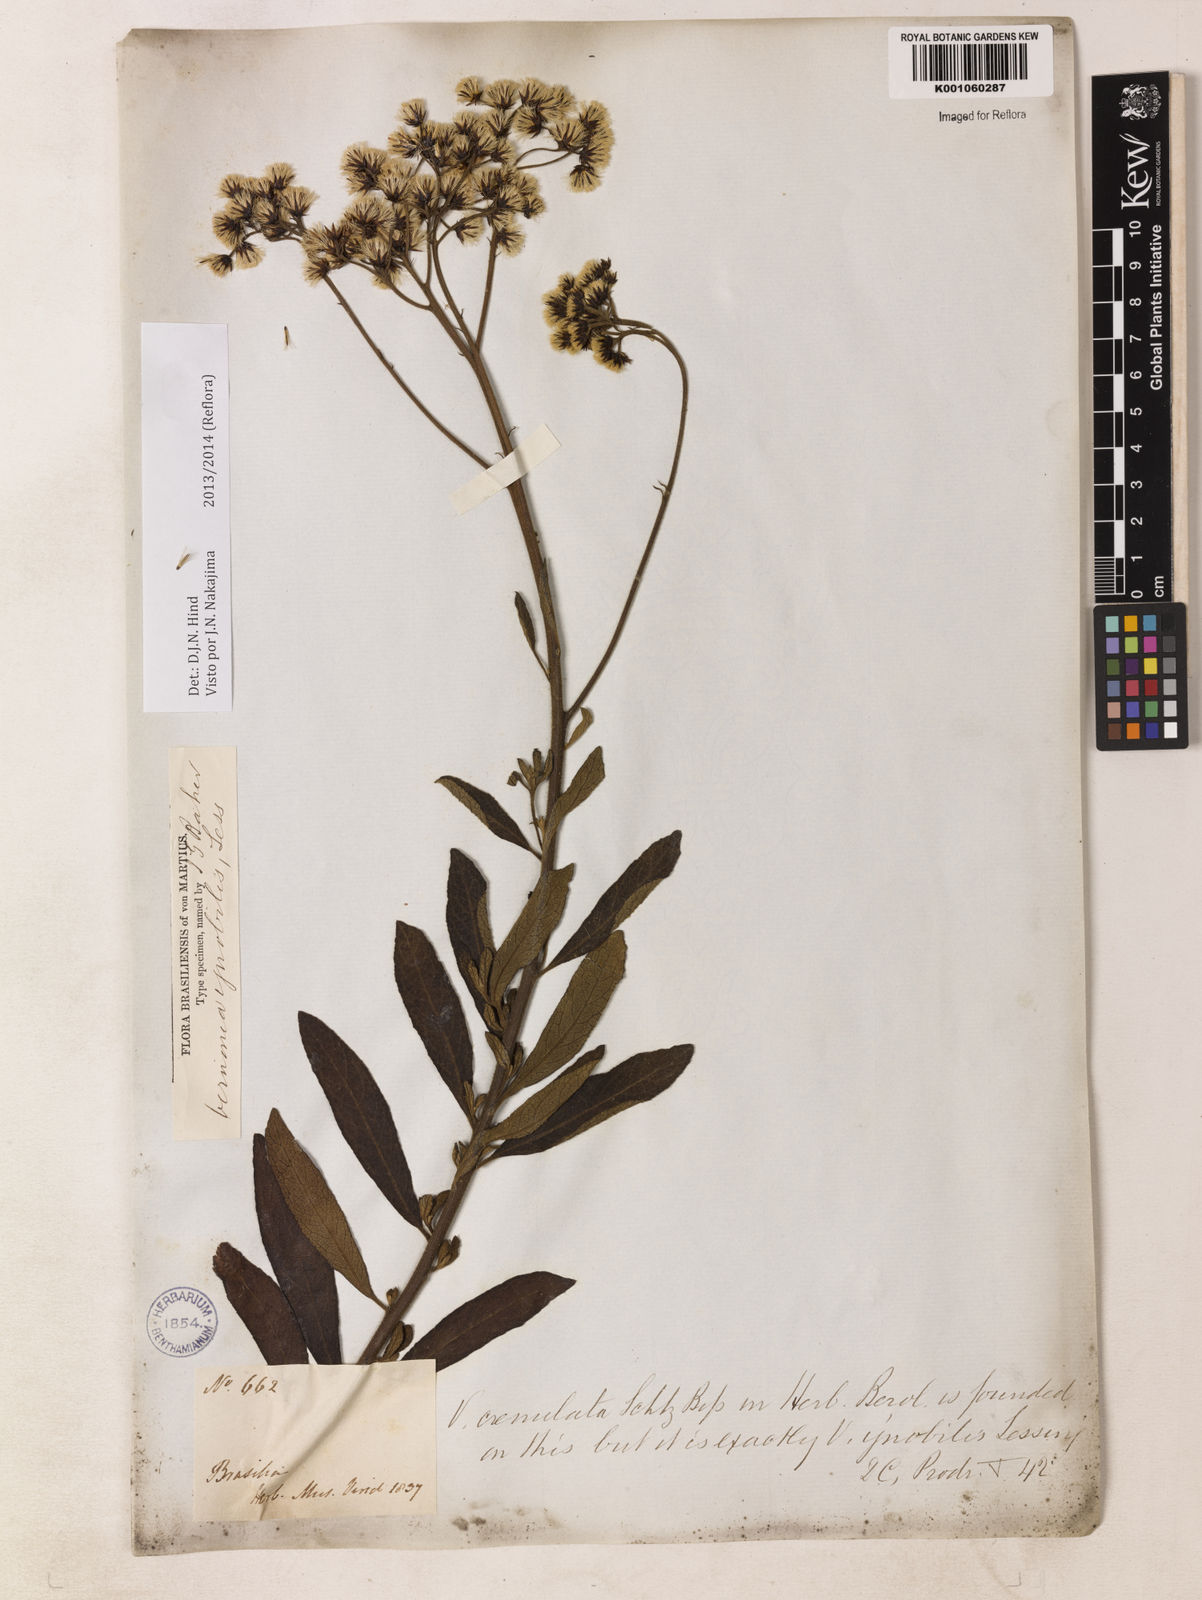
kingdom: Plantae
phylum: Tracheophyta
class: Magnoliopsida
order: Asterales
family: Asteraceae
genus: Vernonanthura
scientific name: Vernonanthura ignobilis
